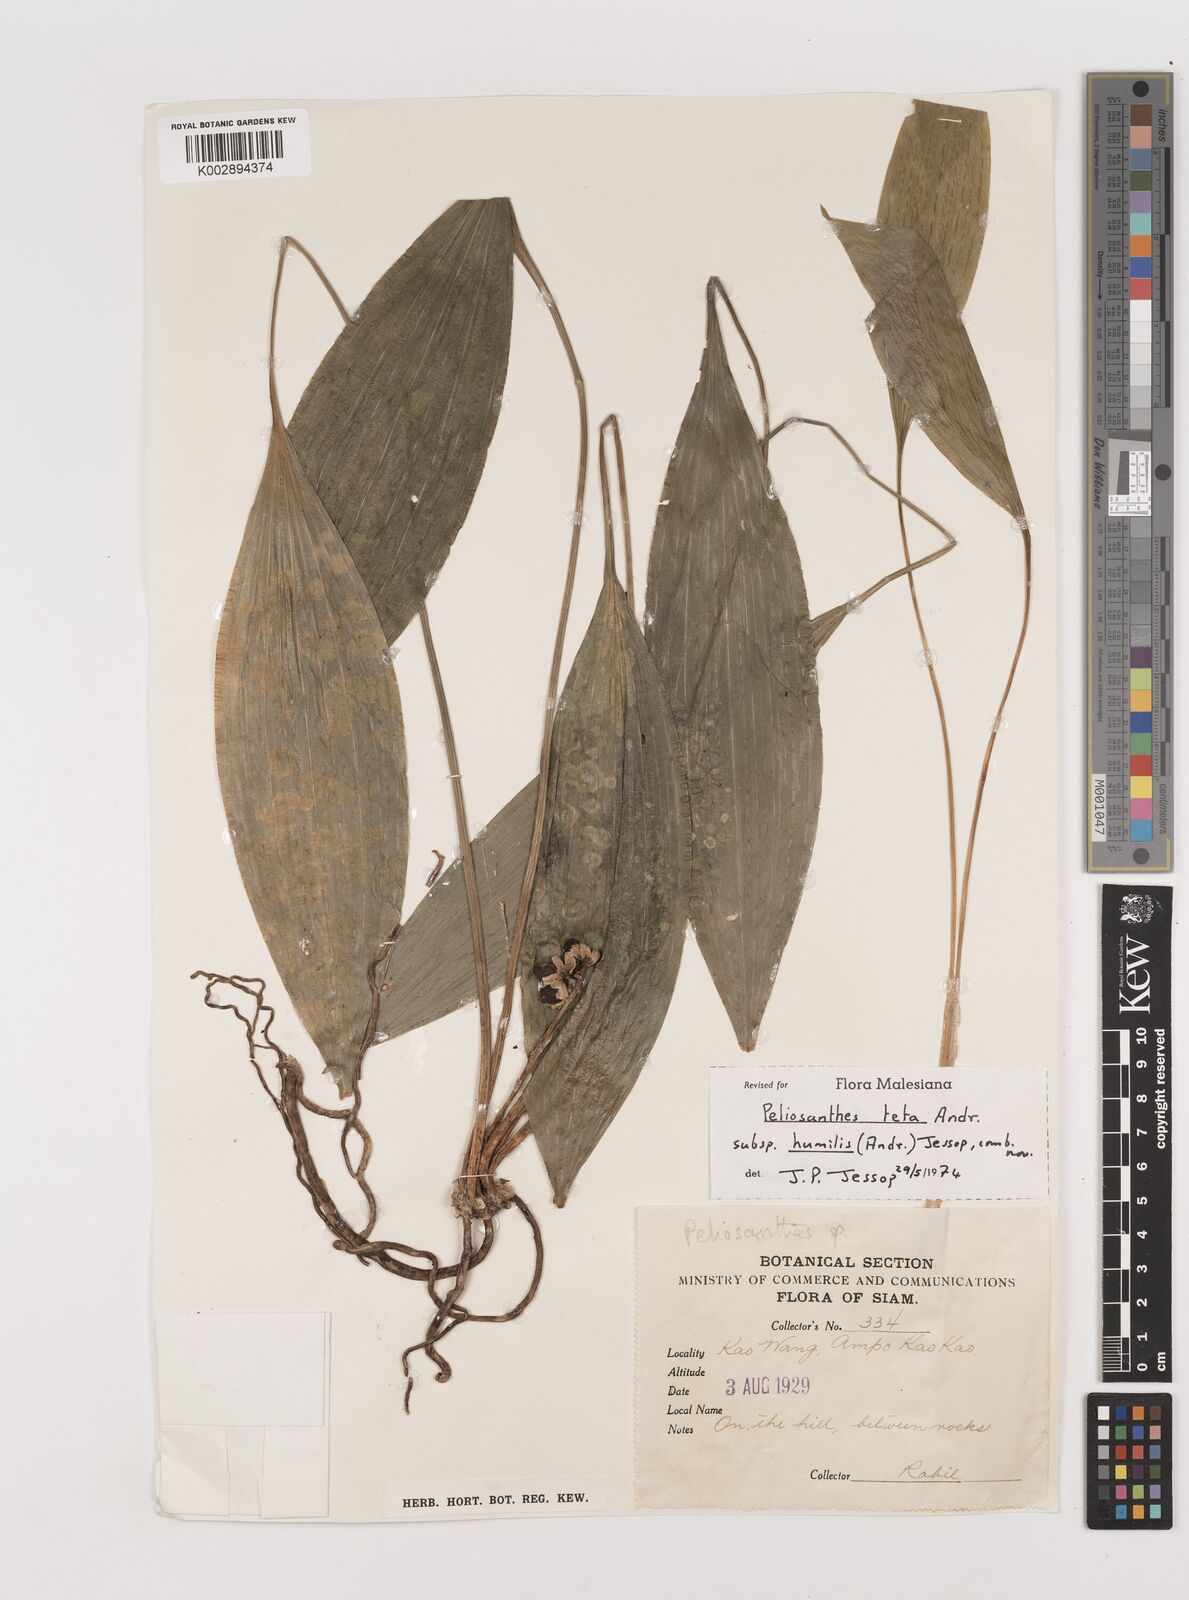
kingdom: Plantae
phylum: Tracheophyta
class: Liliopsida
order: Asparagales
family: Asparagaceae
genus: Peliosanthes
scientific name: Peliosanthes teta
